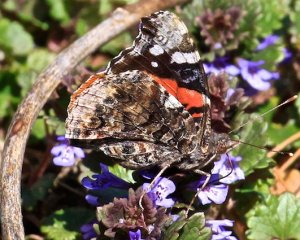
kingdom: Animalia
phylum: Arthropoda
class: Insecta
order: Lepidoptera
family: Nymphalidae
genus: Vanessa
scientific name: Vanessa atalanta
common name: Red Admiral
